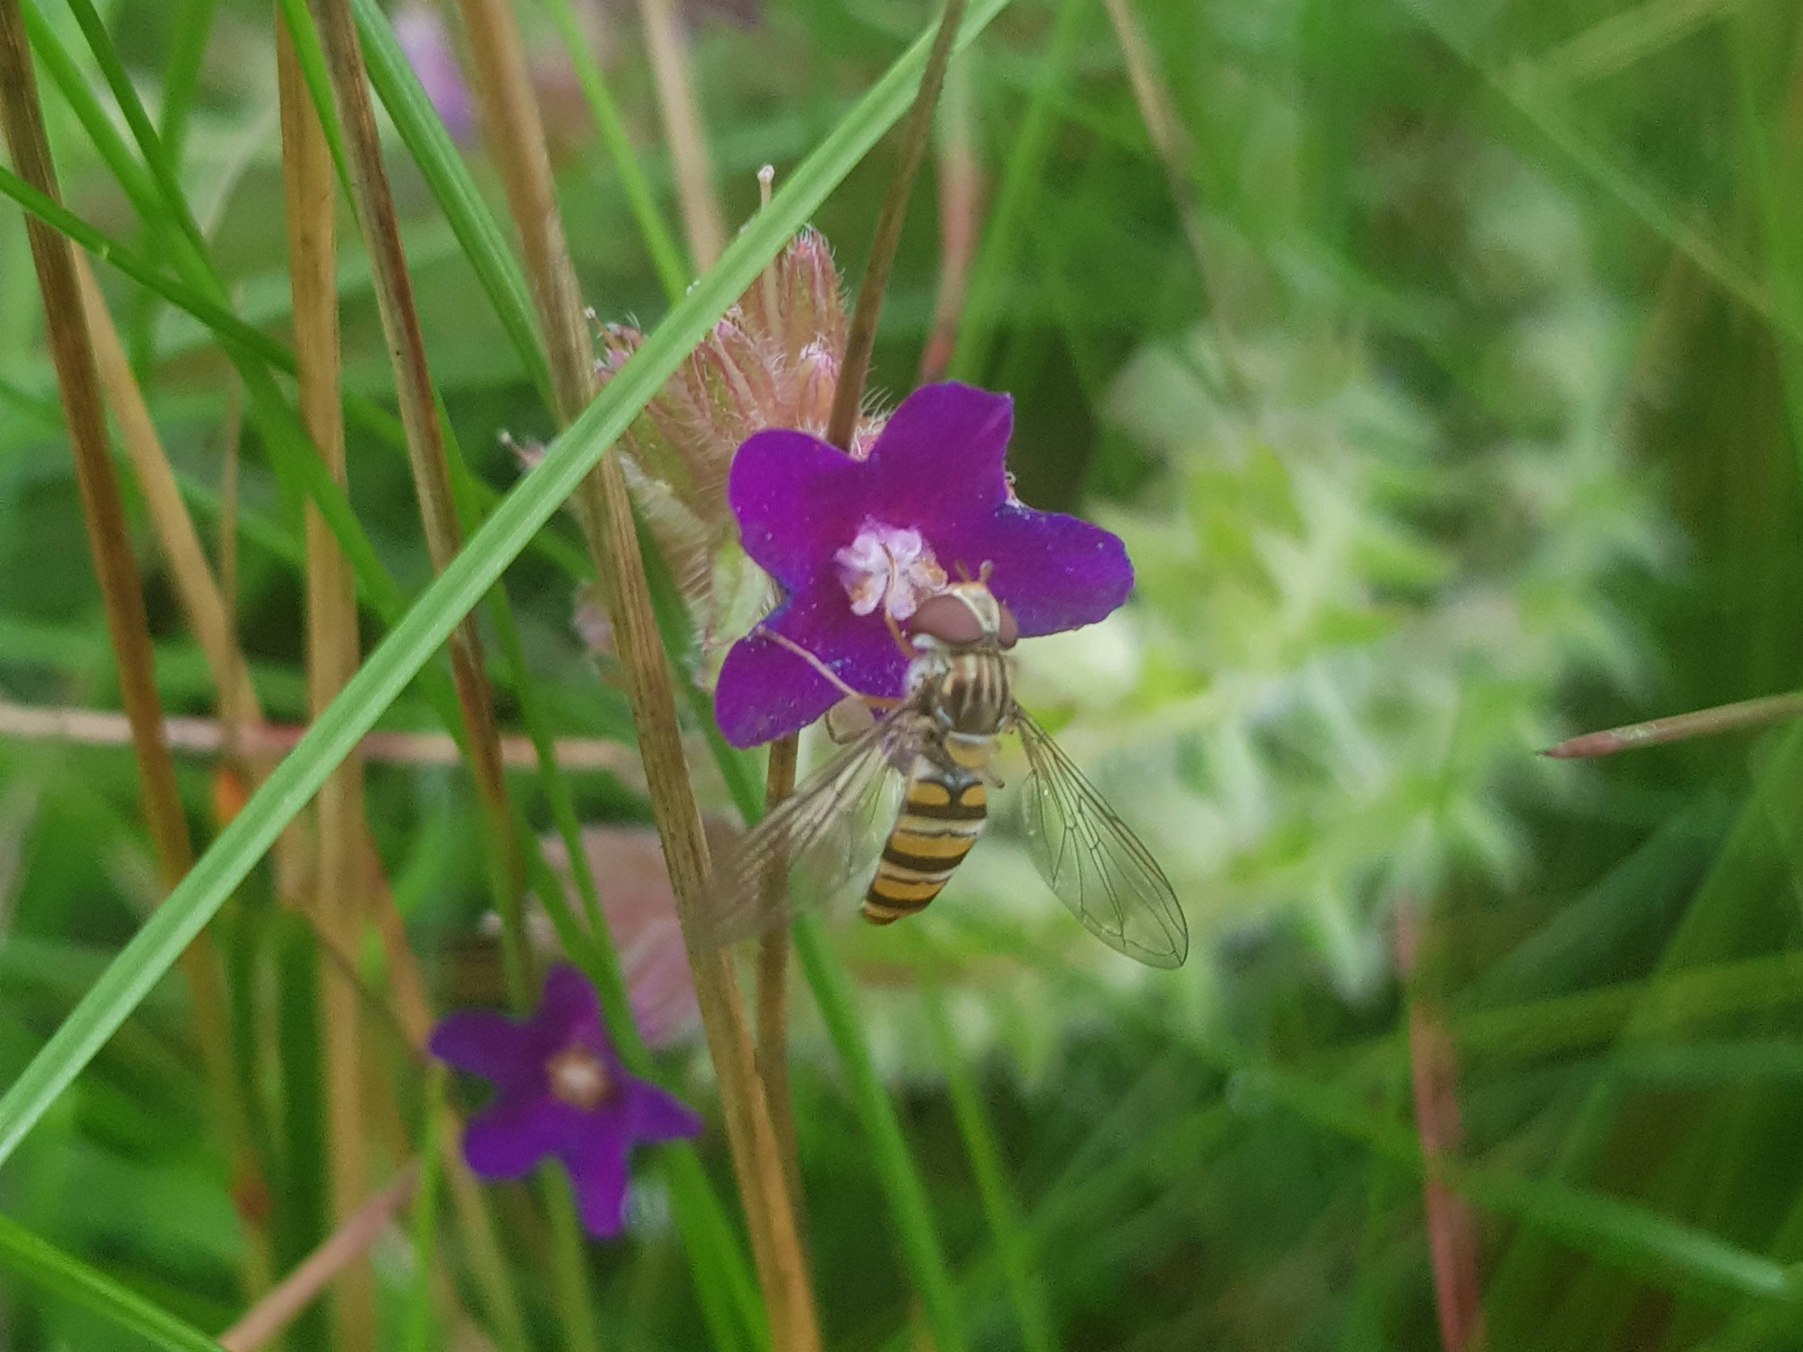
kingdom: Animalia
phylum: Arthropoda
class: Insecta
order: Diptera
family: Syrphidae
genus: Episyrphus
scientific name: Episyrphus balteatus
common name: Dobbeltbåndet svirreflue
